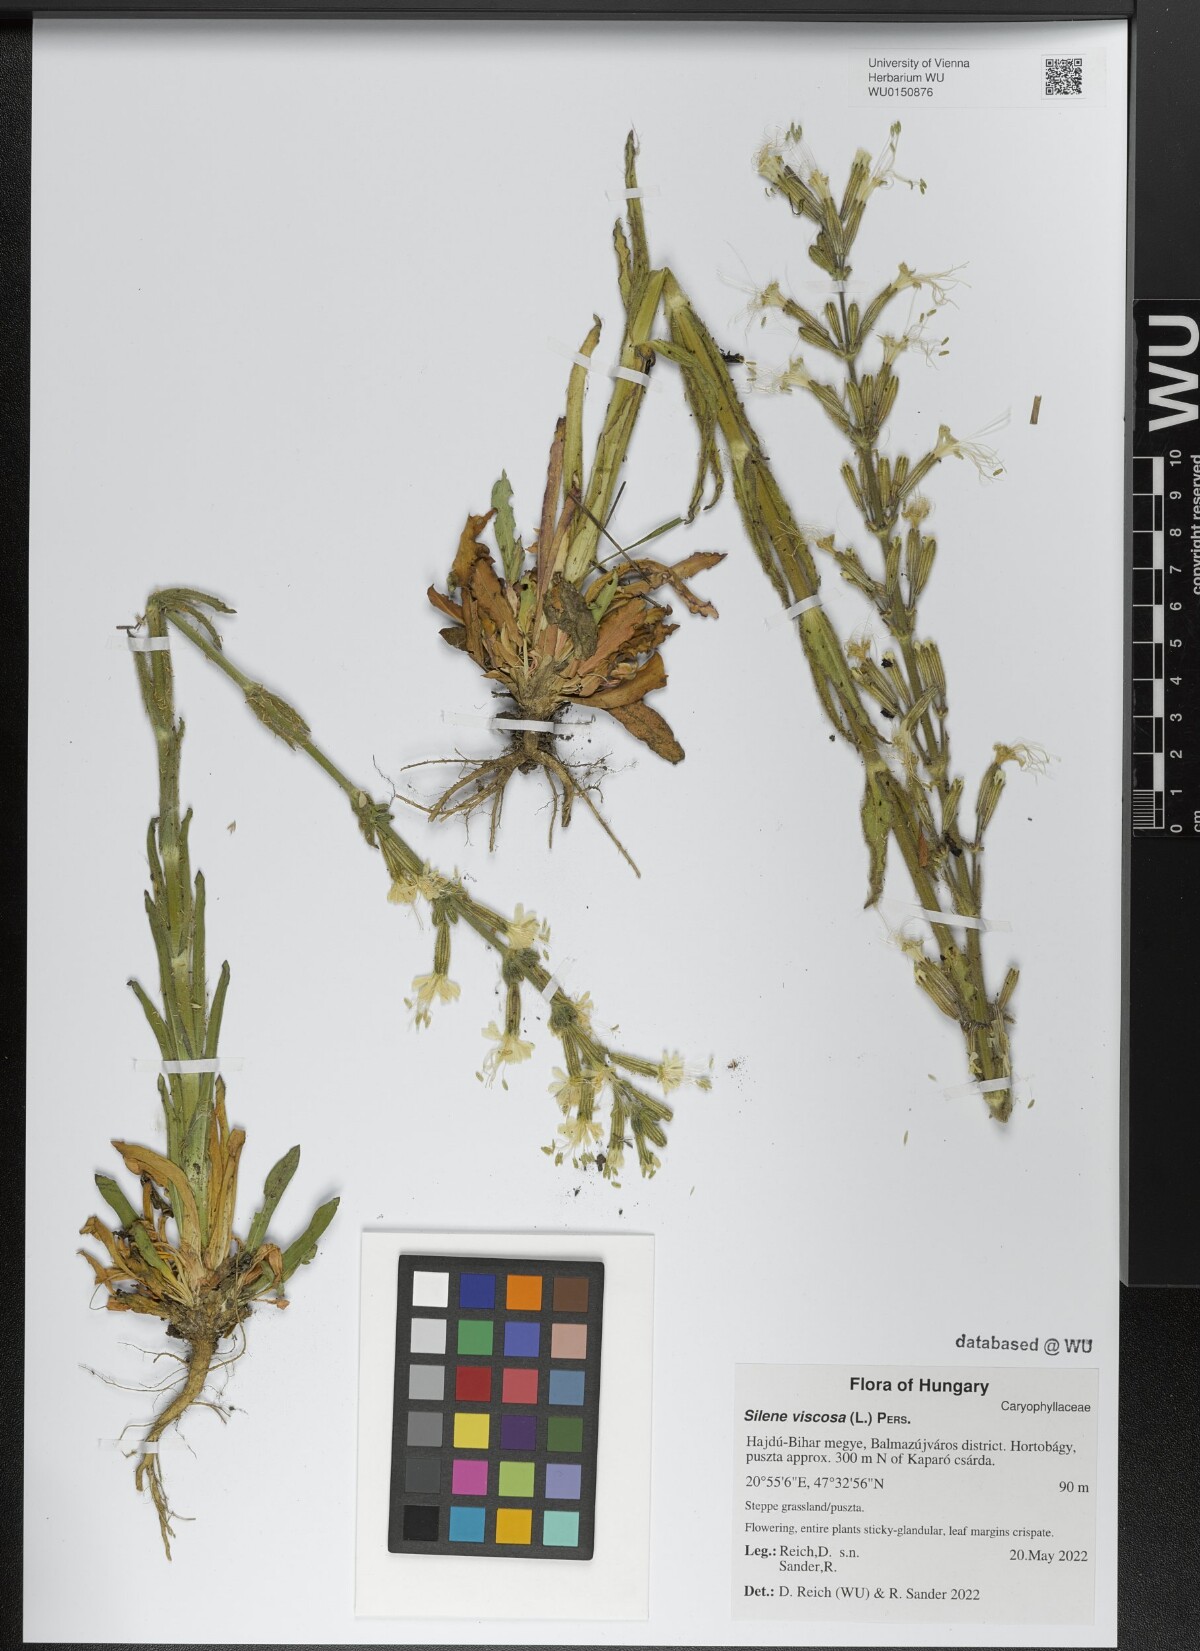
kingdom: Plantae
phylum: Tracheophyta
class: Magnoliopsida
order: Caryophyllales
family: Caryophyllaceae
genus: Silene
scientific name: Silene viscosa
